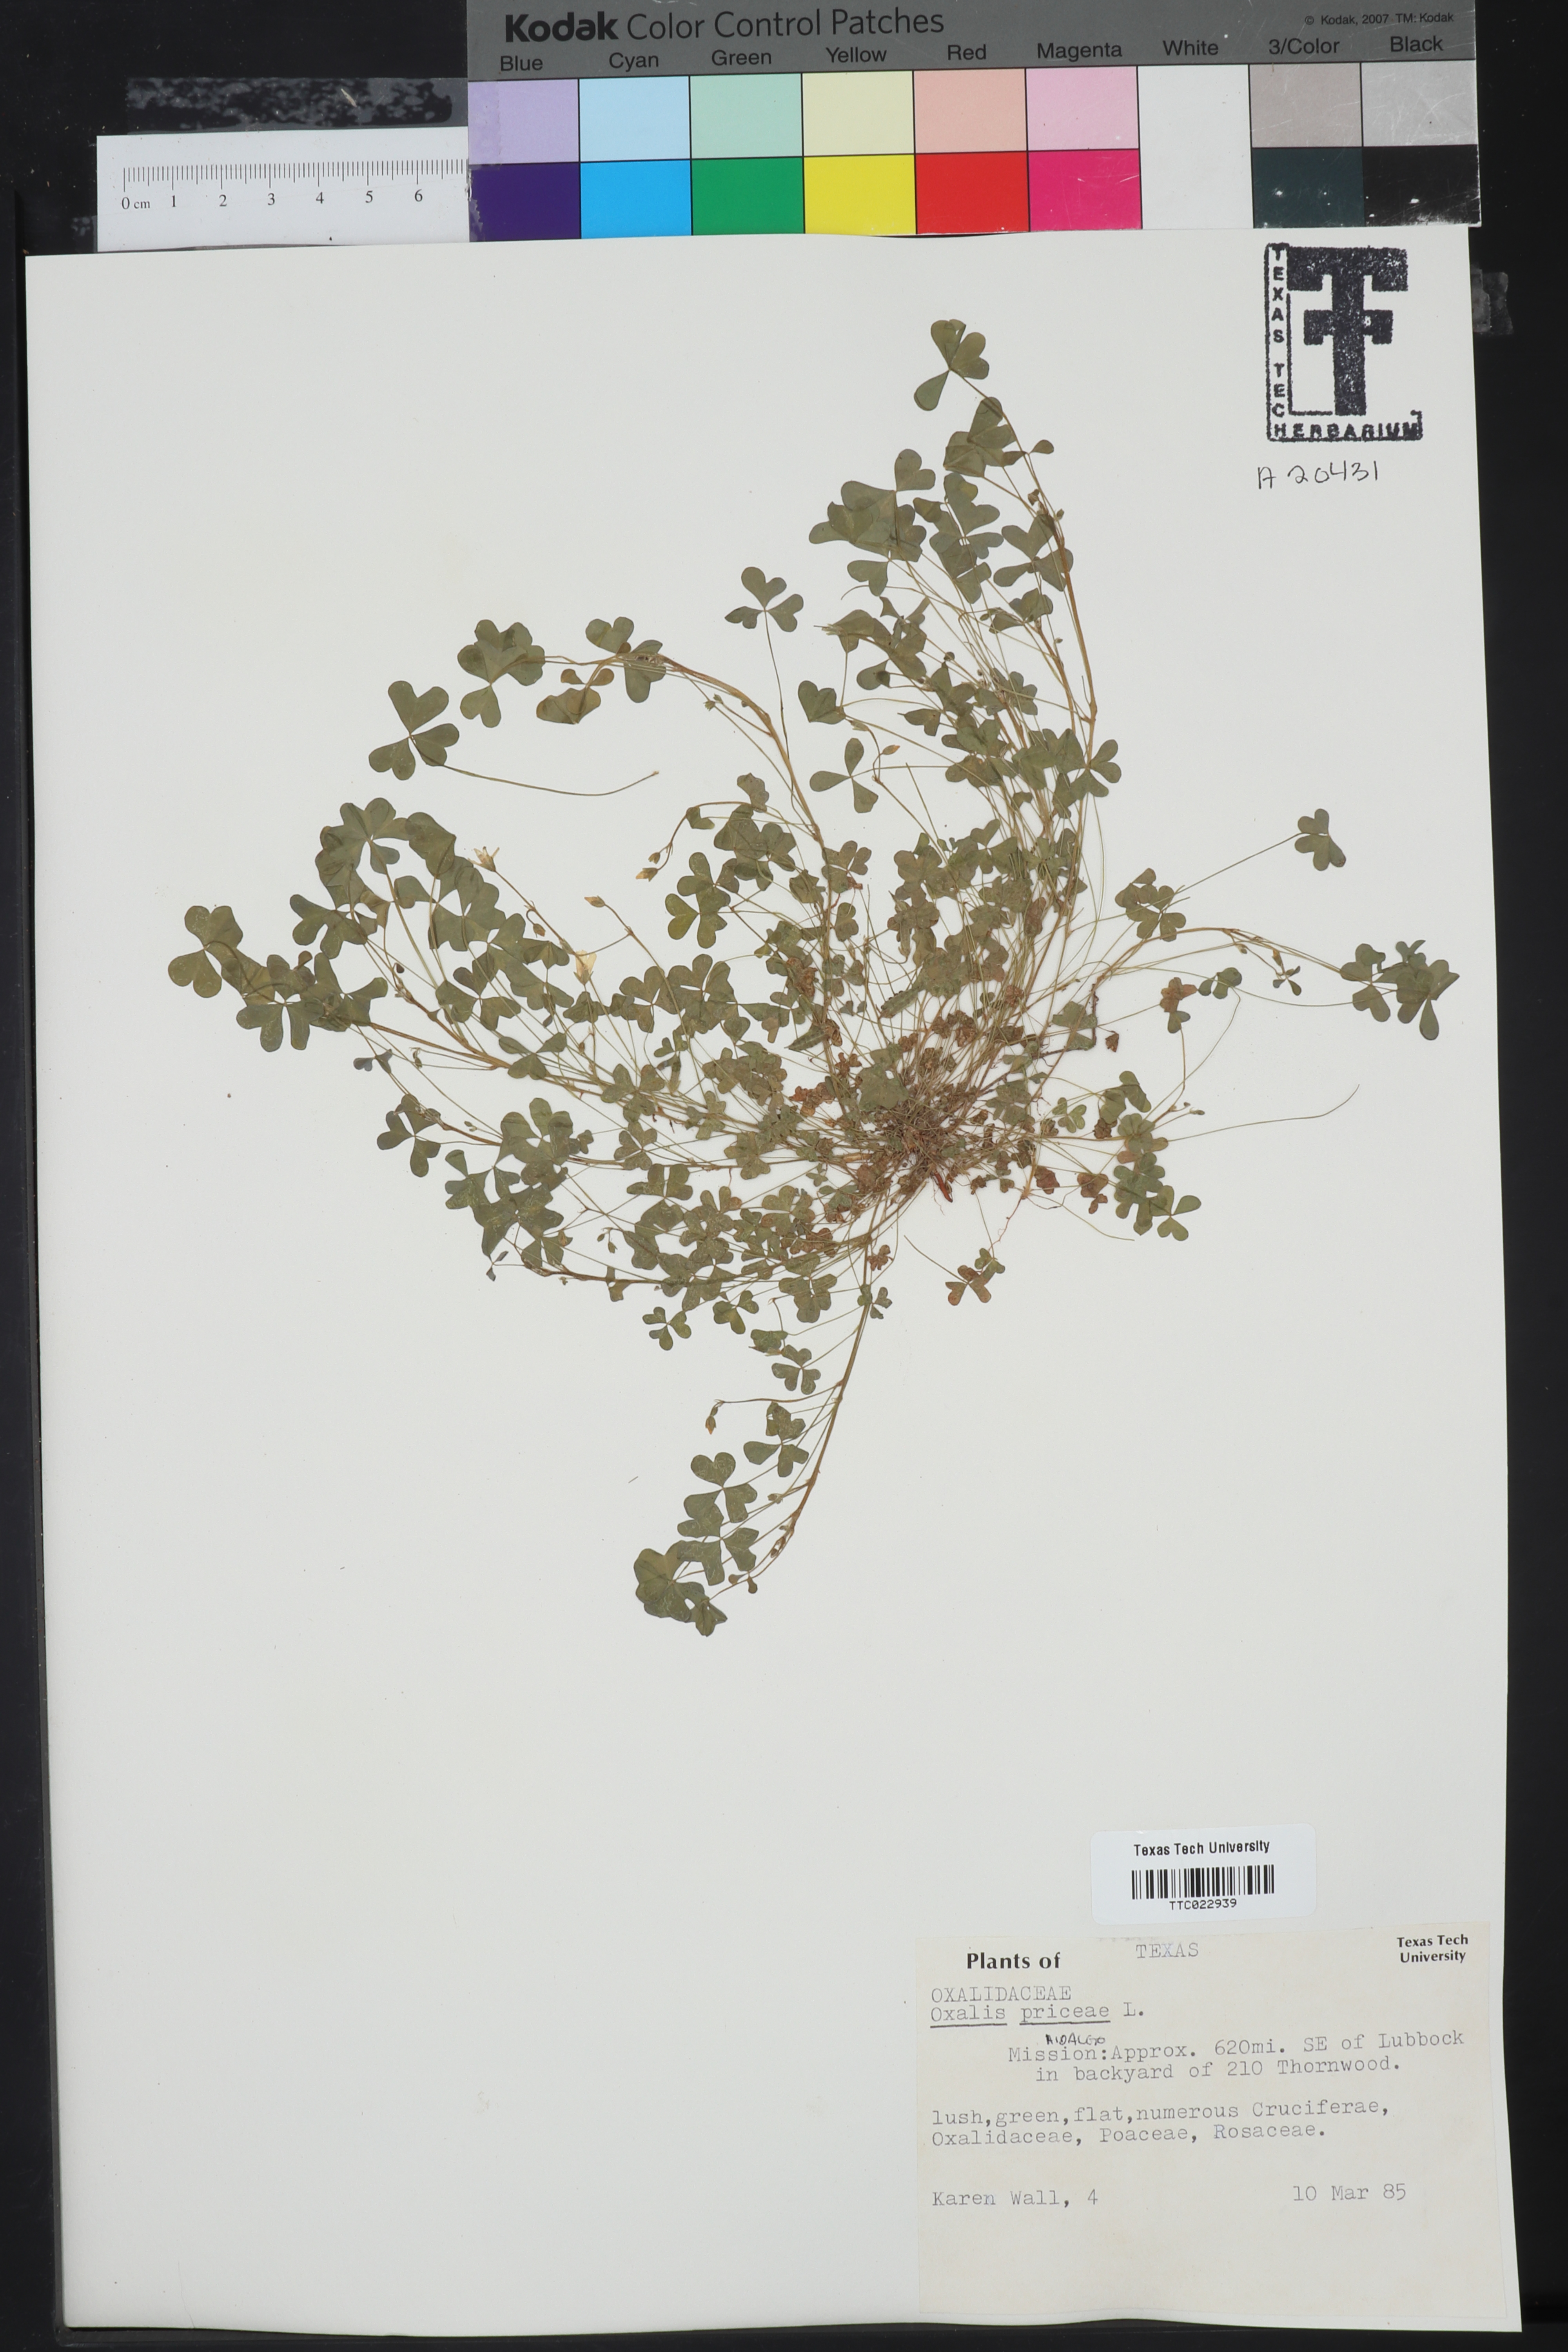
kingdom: Plantae
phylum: Tracheophyta
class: Magnoliopsida
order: Oxalidales
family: Oxalidaceae
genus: Oxalis
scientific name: Oxalis macrantha
